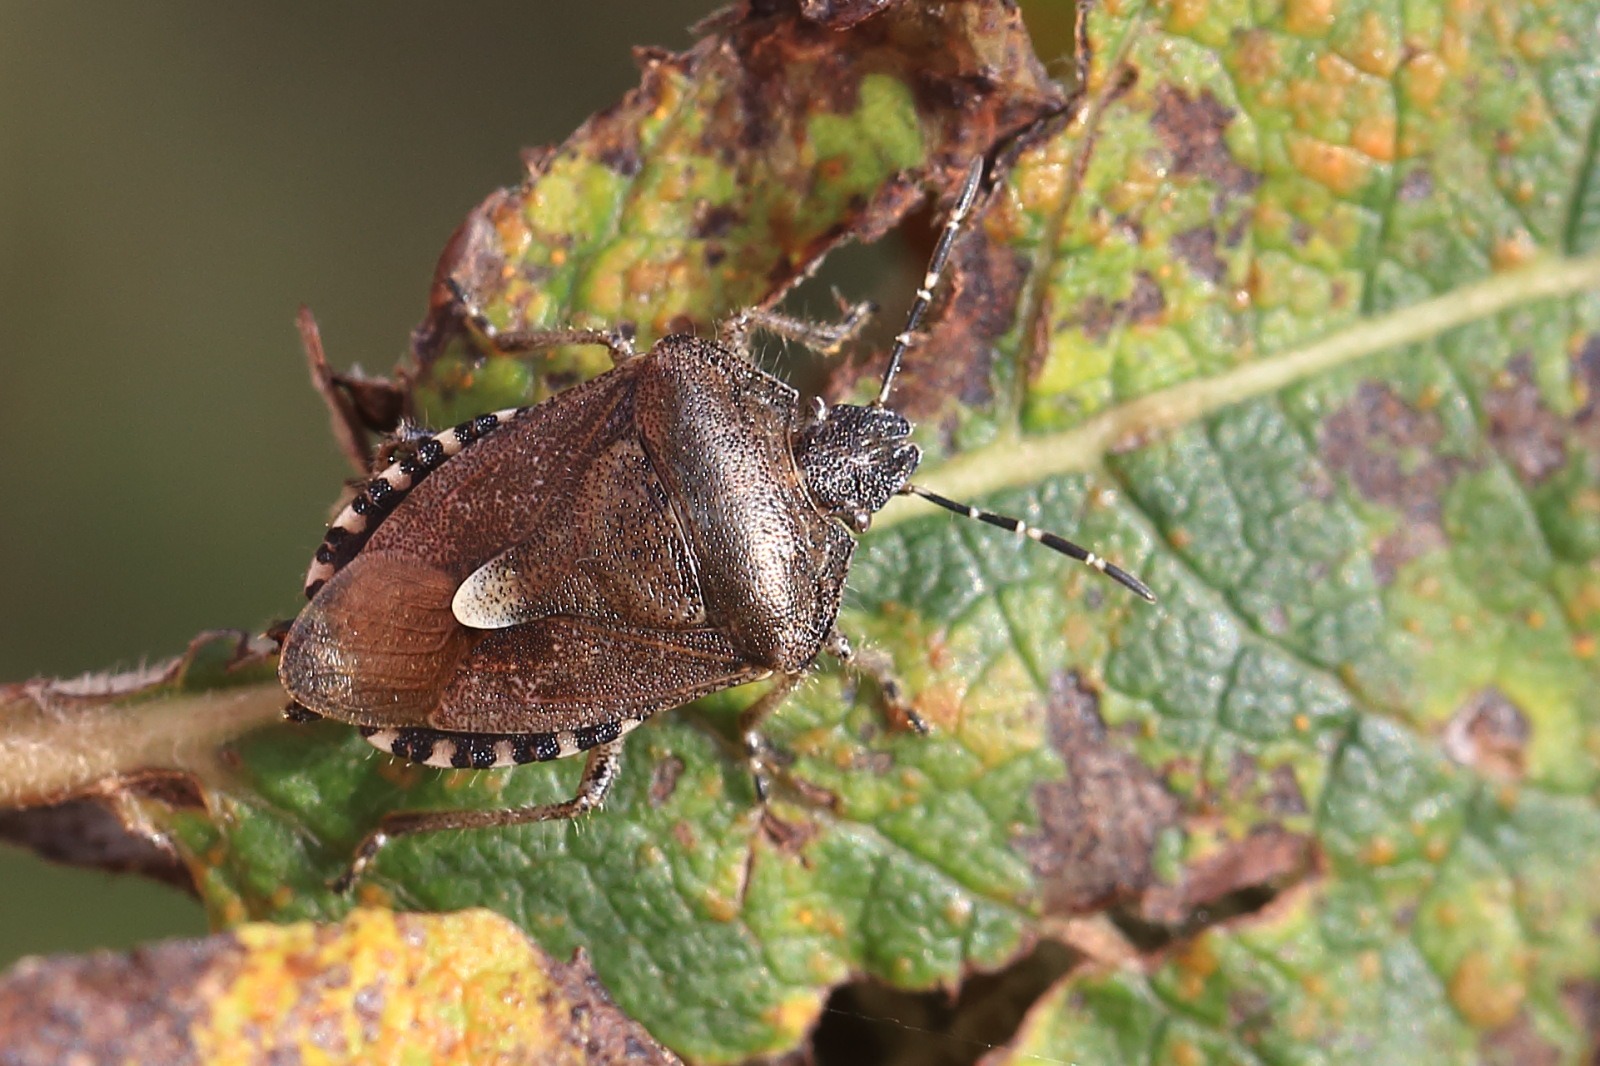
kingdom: Animalia
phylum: Arthropoda
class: Insecta
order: Hemiptera
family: Pentatomidae
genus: Dolycoris
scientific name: Dolycoris baccarum
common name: Almindelig bærtæge
